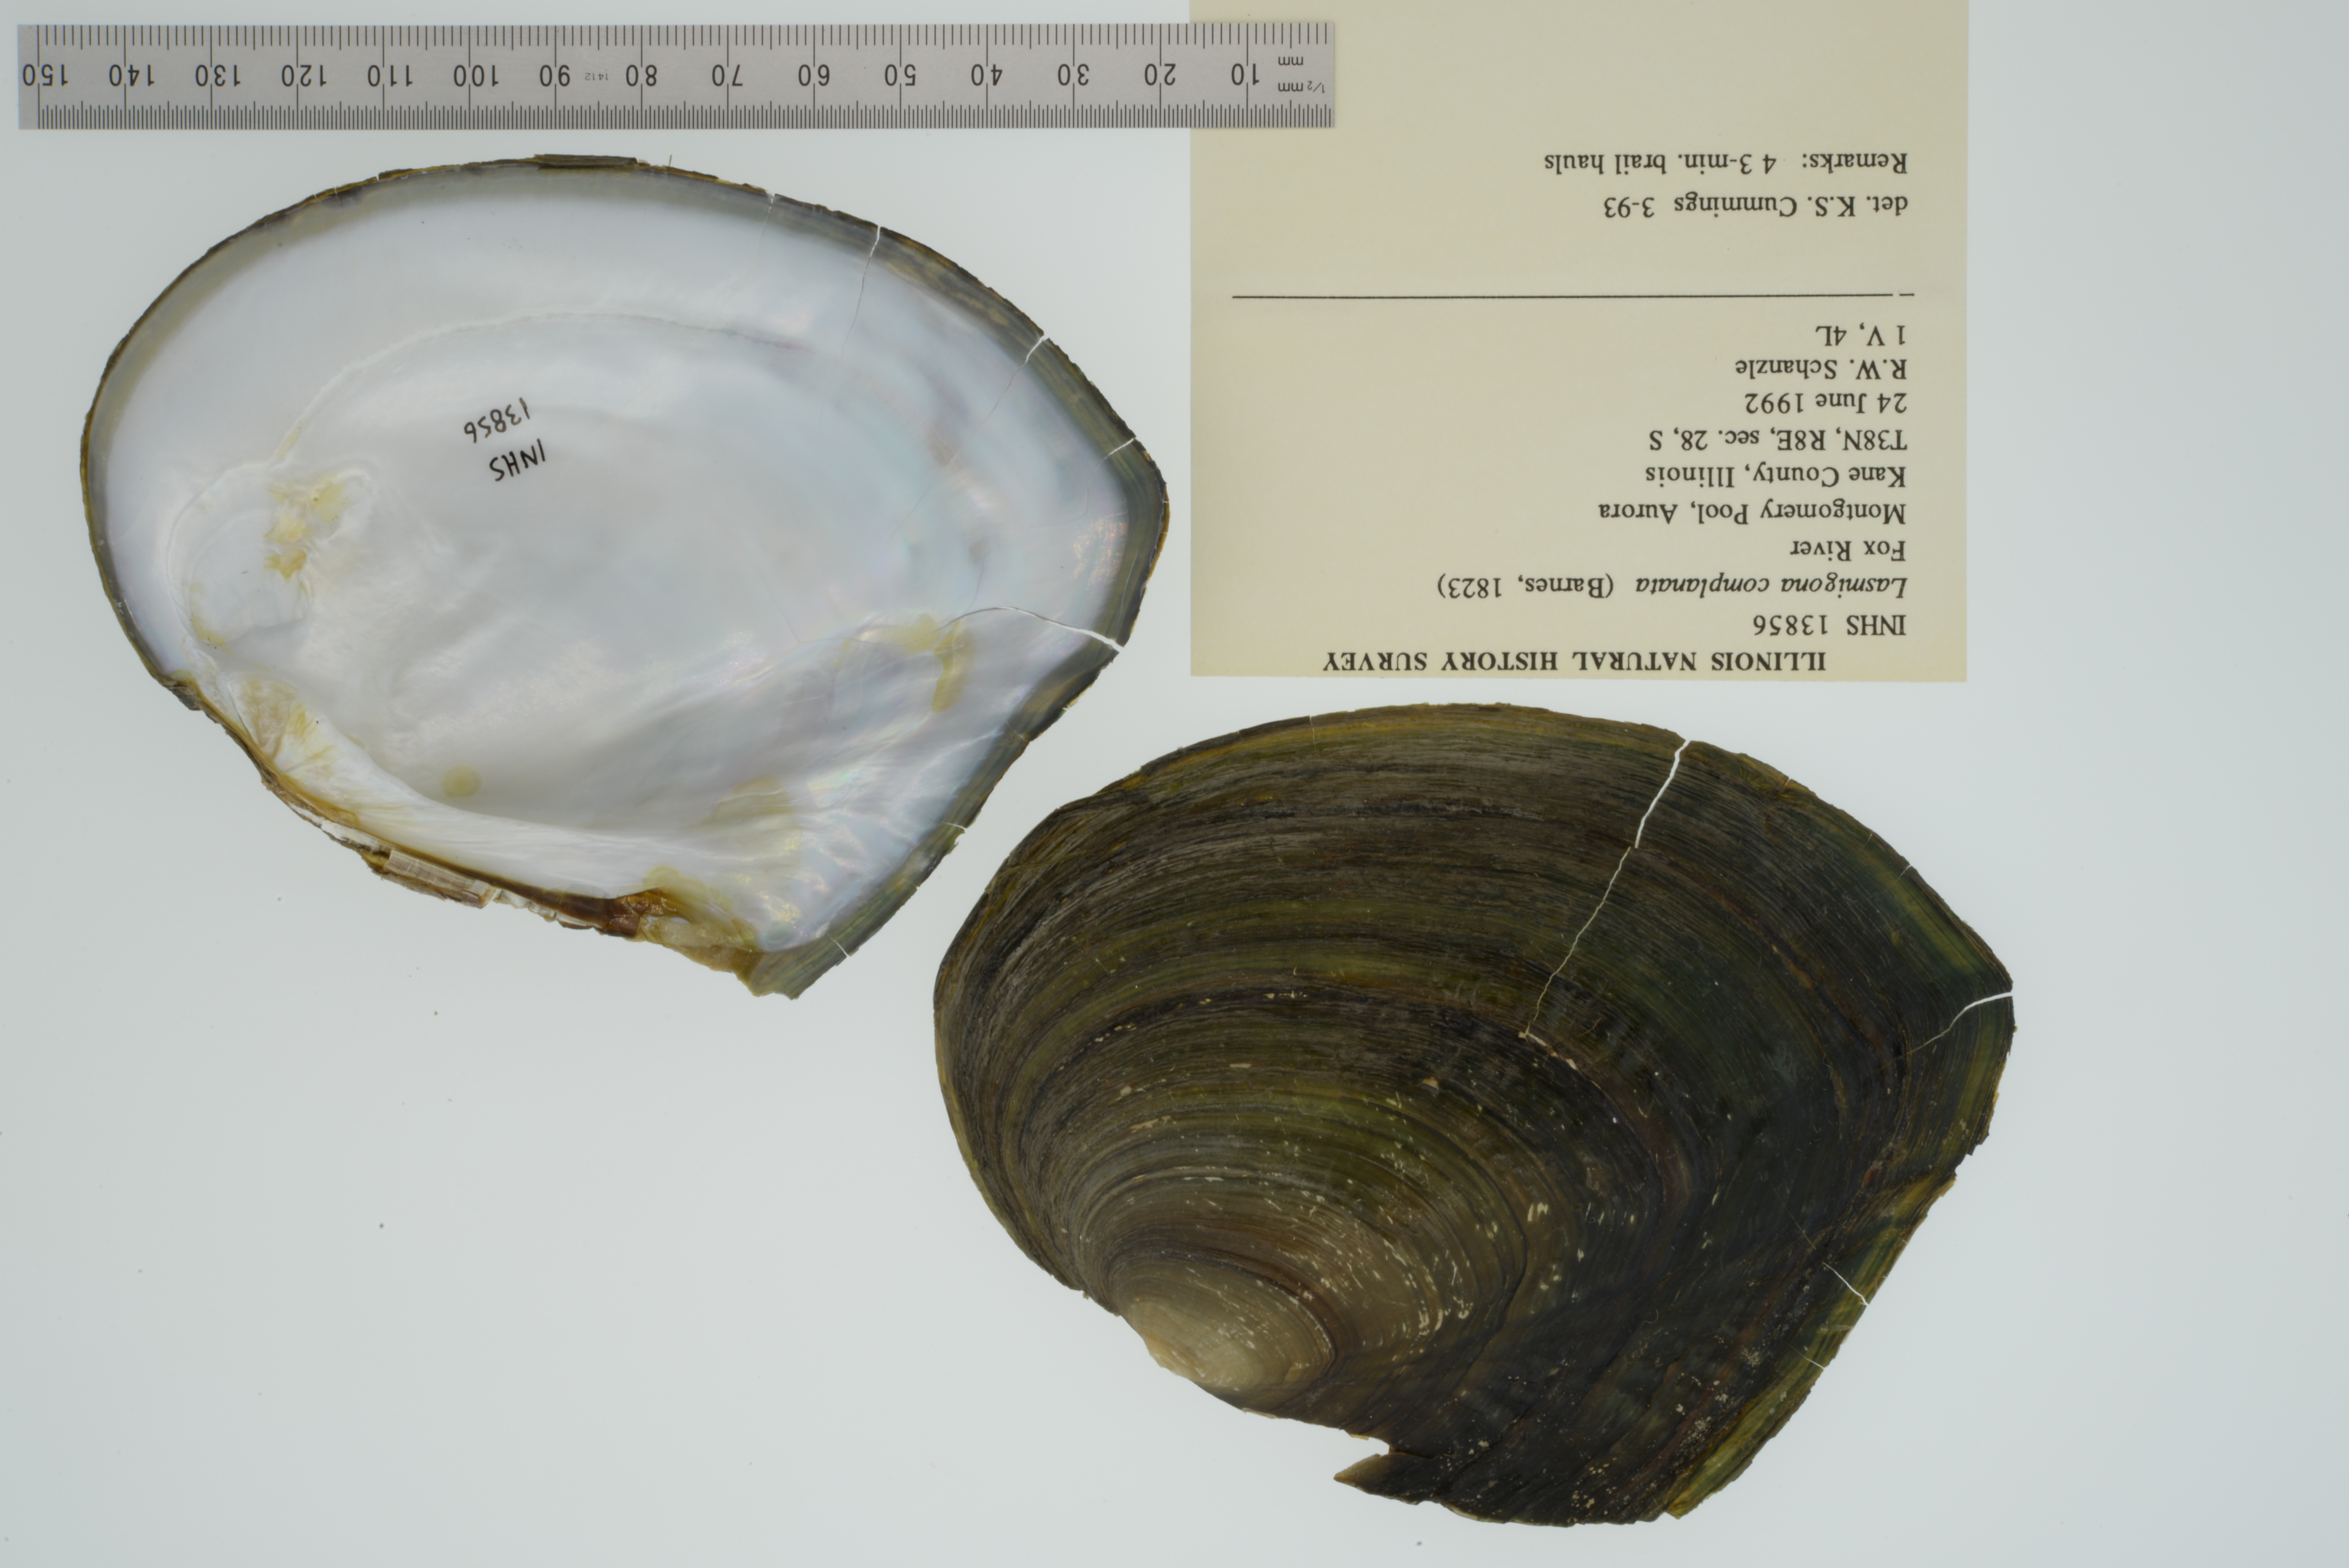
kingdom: Animalia
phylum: Mollusca
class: Bivalvia
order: Unionida
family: Unionidae
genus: Lasmigona
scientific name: Lasmigona complanata
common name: White heelsplitter
